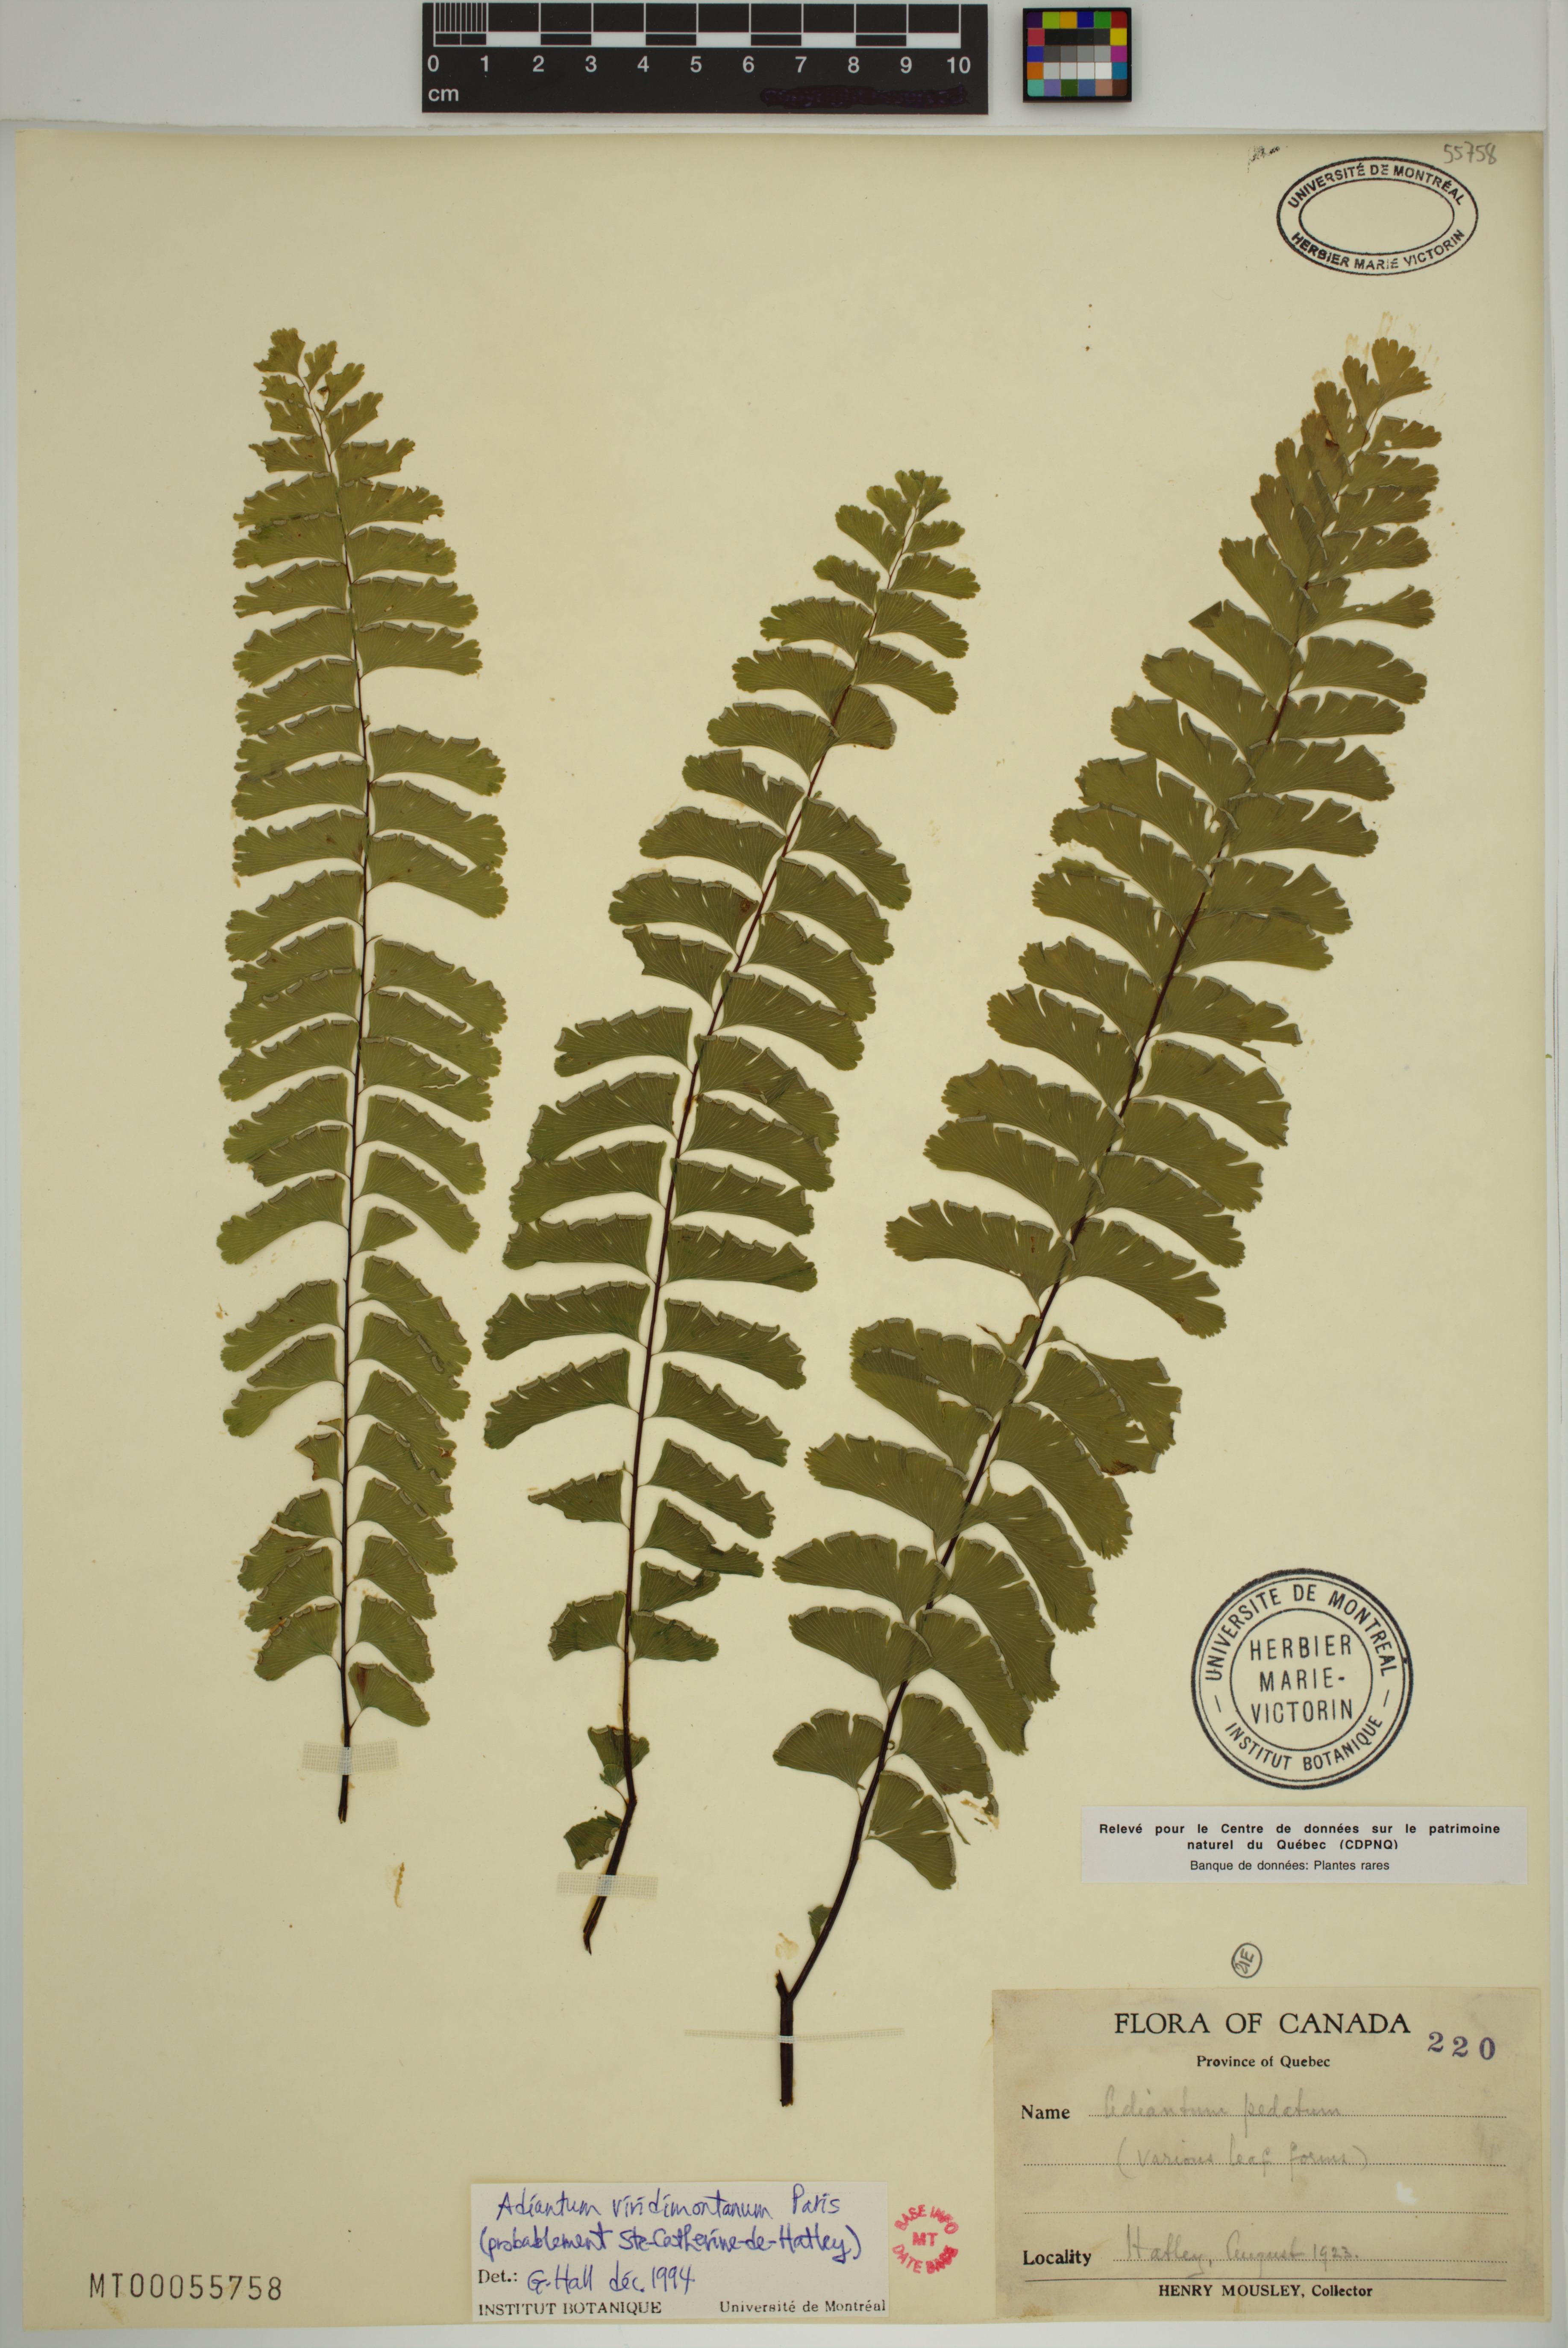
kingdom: Plantae
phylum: Tracheophyta
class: Polypodiopsida
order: Polypodiales
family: Pteridaceae
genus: Adiantum
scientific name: Adiantum viridimontanum
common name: Green mountain maidenhair
